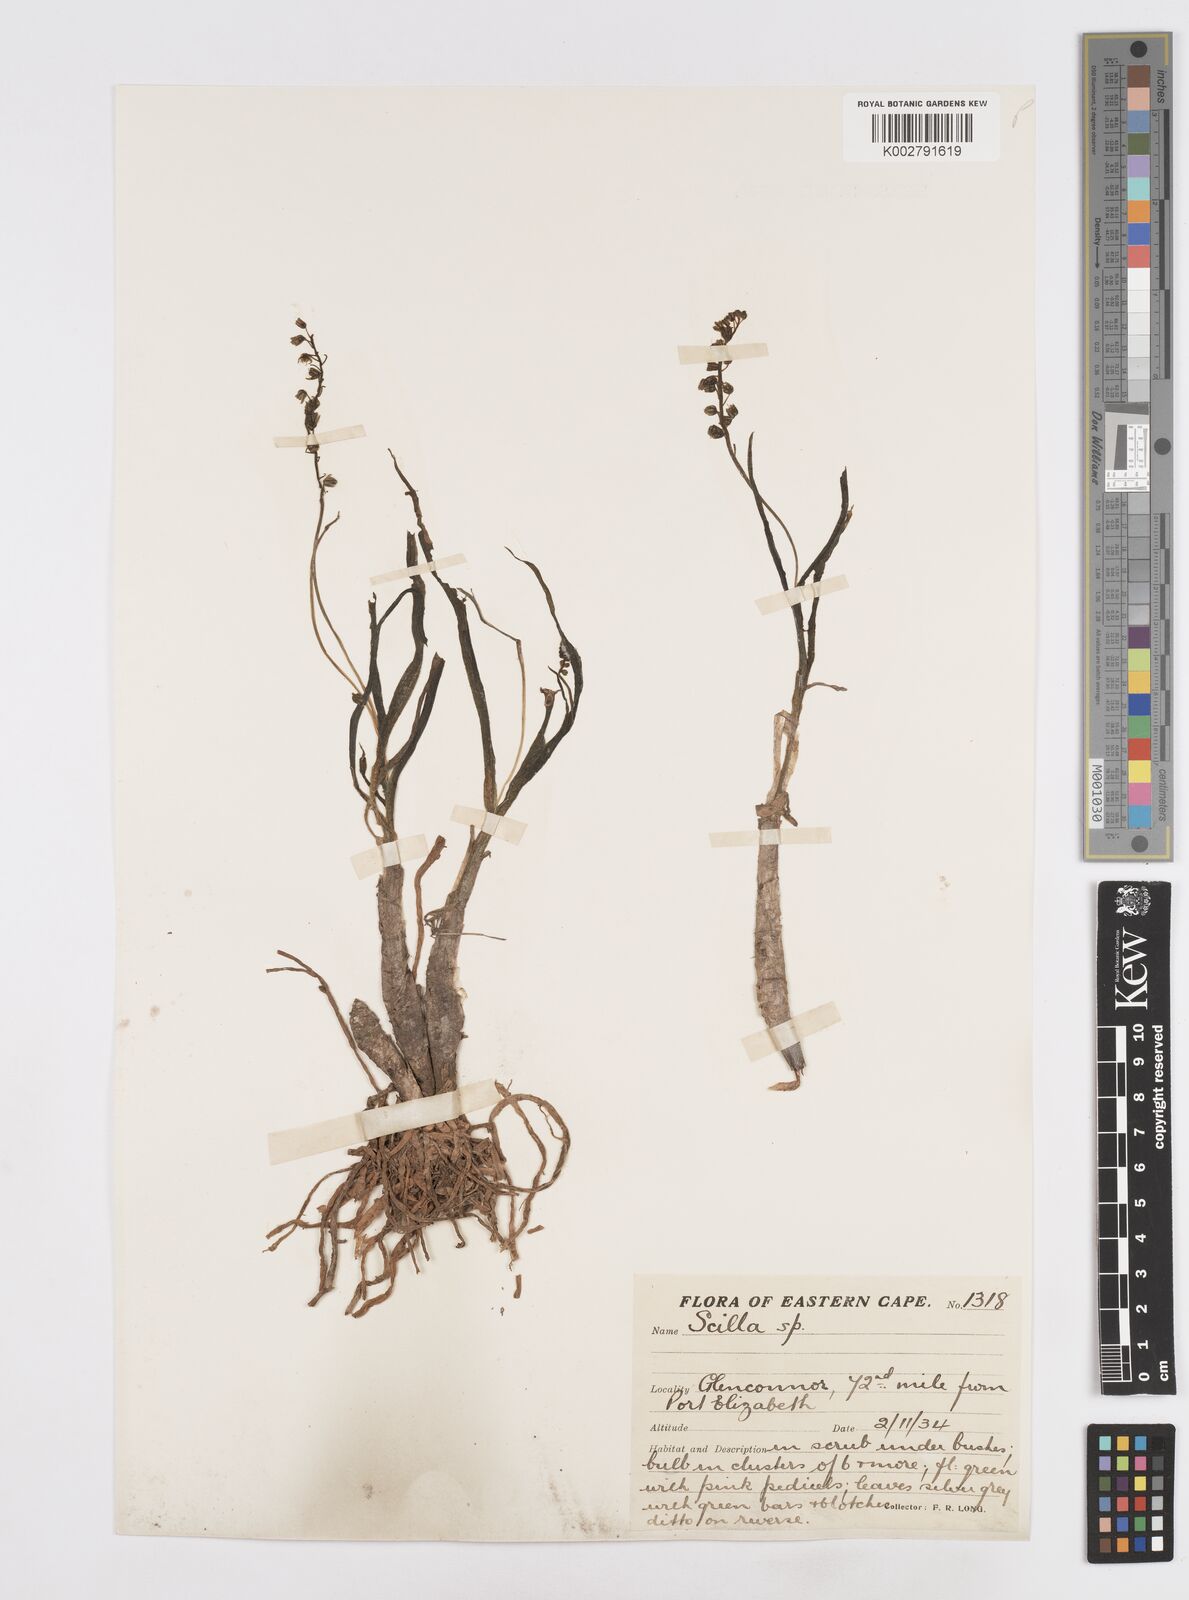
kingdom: Plantae
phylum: Tracheophyta
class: Liliopsida
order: Asparagales
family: Asparagaceae
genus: Scilla
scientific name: Scilla
